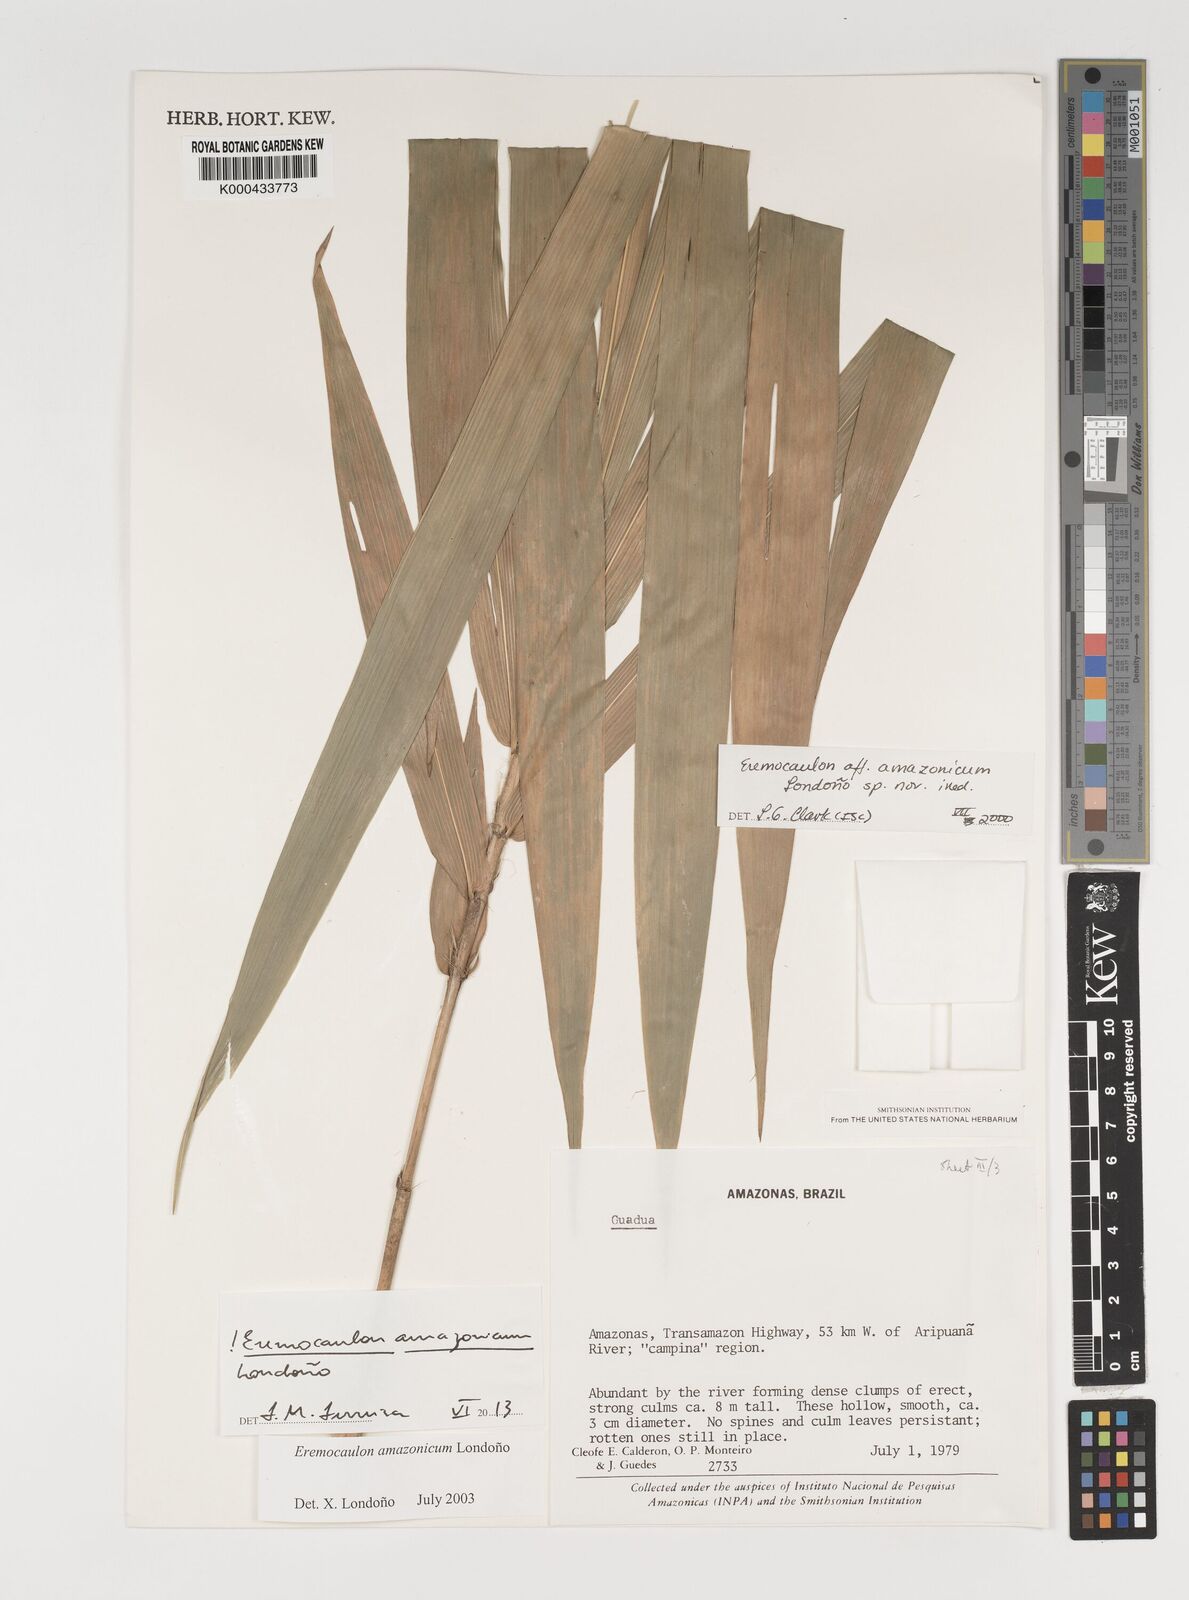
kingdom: Plantae
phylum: Tracheophyta
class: Liliopsida
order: Poales
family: Poaceae
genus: Eremocaulon
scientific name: Eremocaulon
